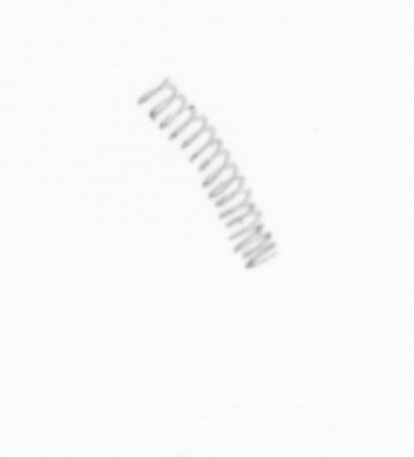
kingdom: Chromista
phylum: Ochrophyta
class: Bacillariophyceae
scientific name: Bacillariophyceae
